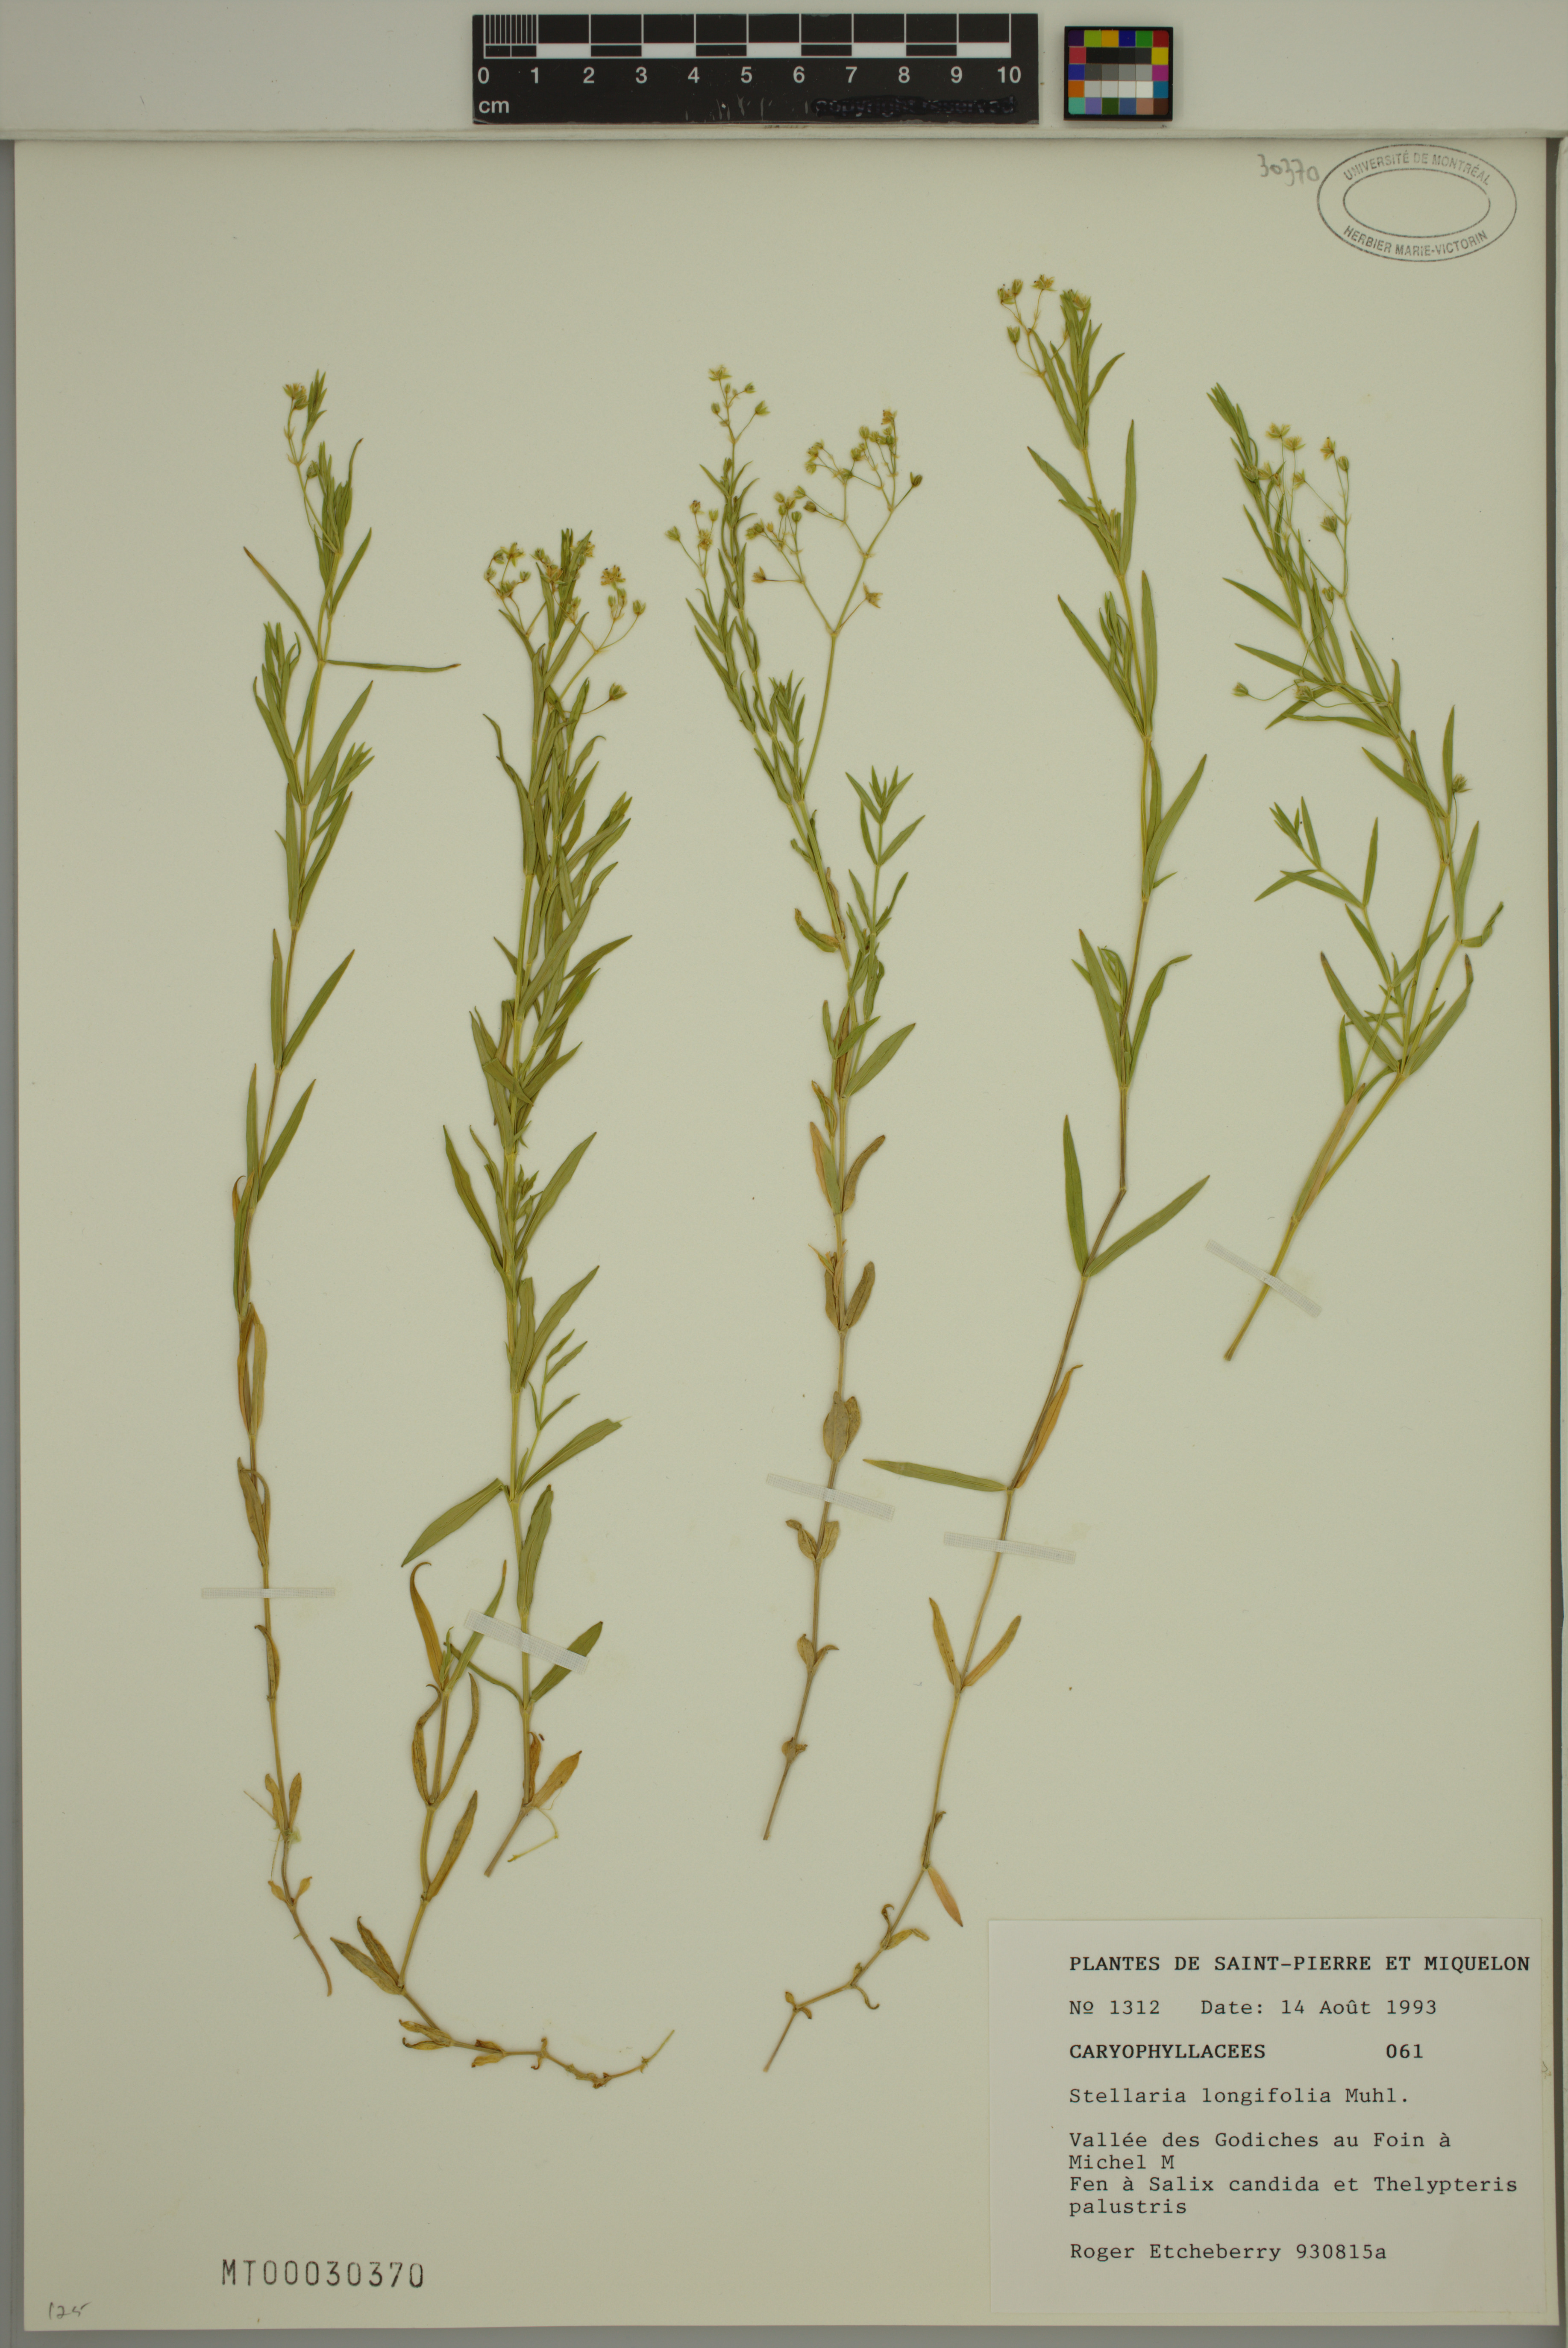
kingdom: Plantae
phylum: Tracheophyta
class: Magnoliopsida
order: Caryophyllales
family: Caryophyllaceae
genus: Stellaria
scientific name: Stellaria longifolia
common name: Long-leaved chickweed
